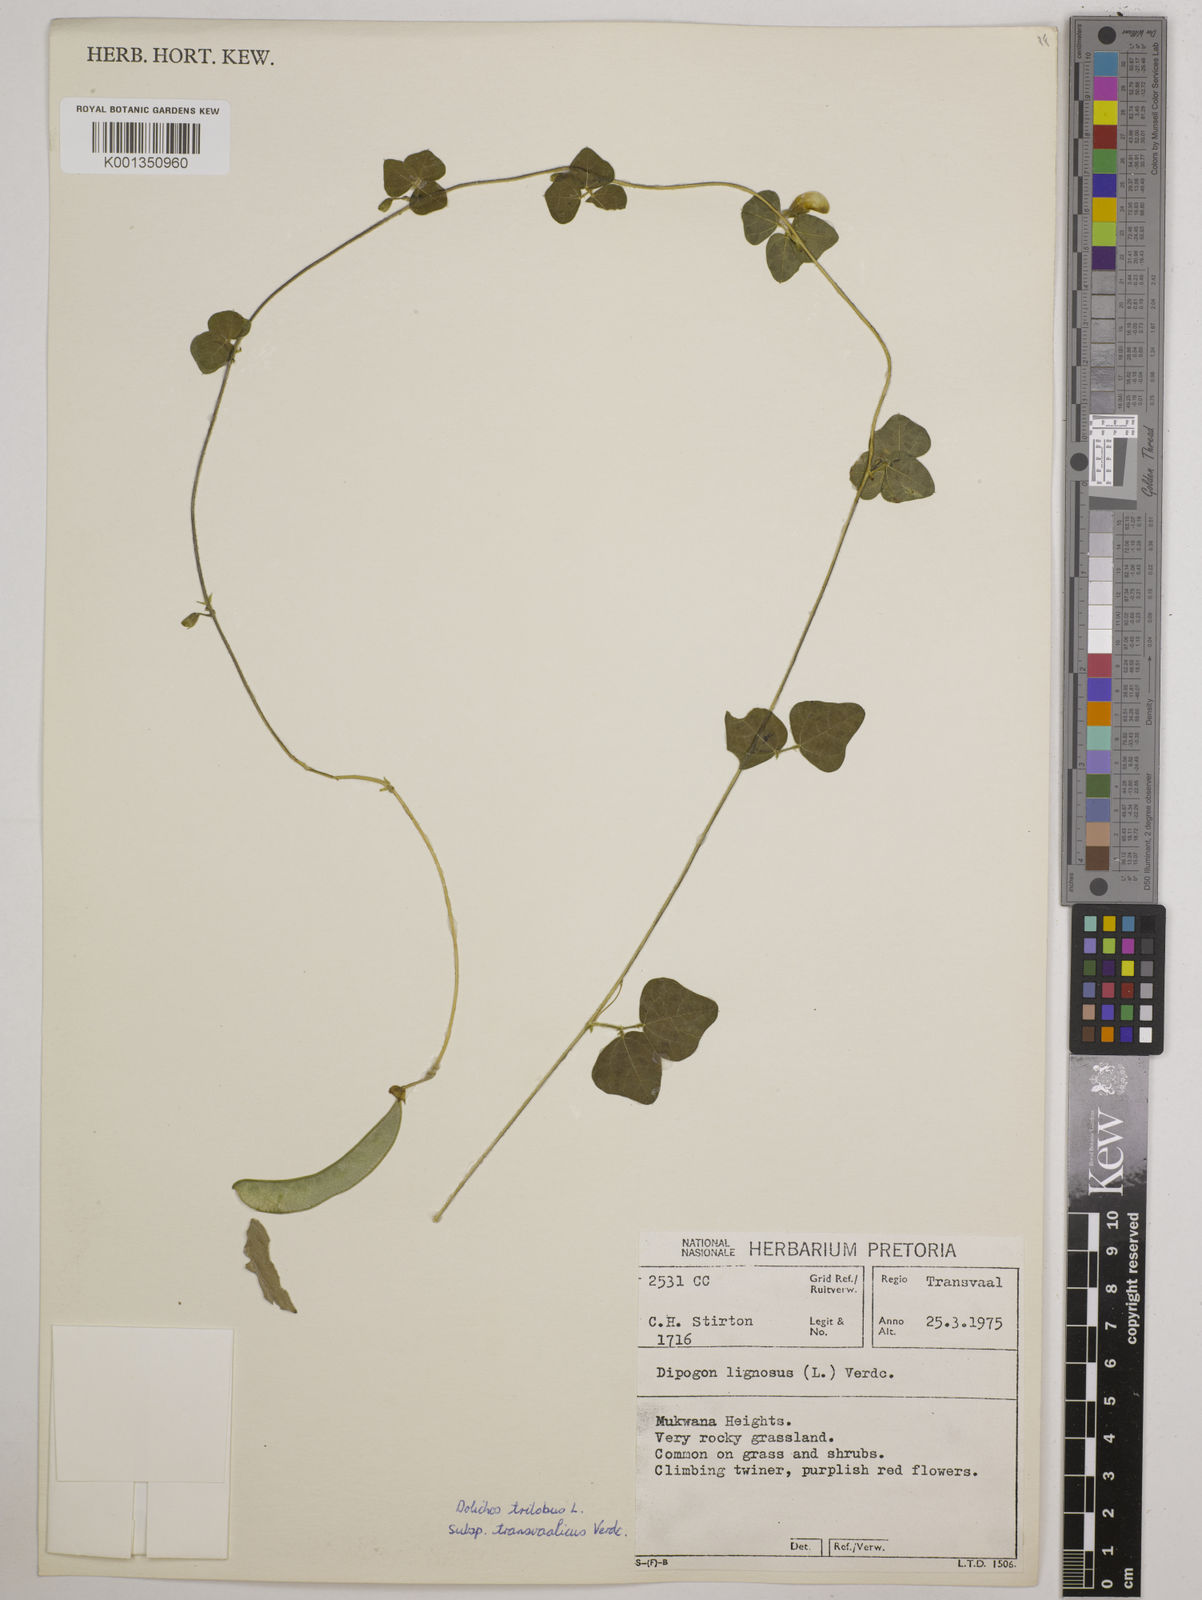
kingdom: Plantae
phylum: Tracheophyta
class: Magnoliopsida
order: Fabales
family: Fabaceae
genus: Dolichos
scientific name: Dolichos
